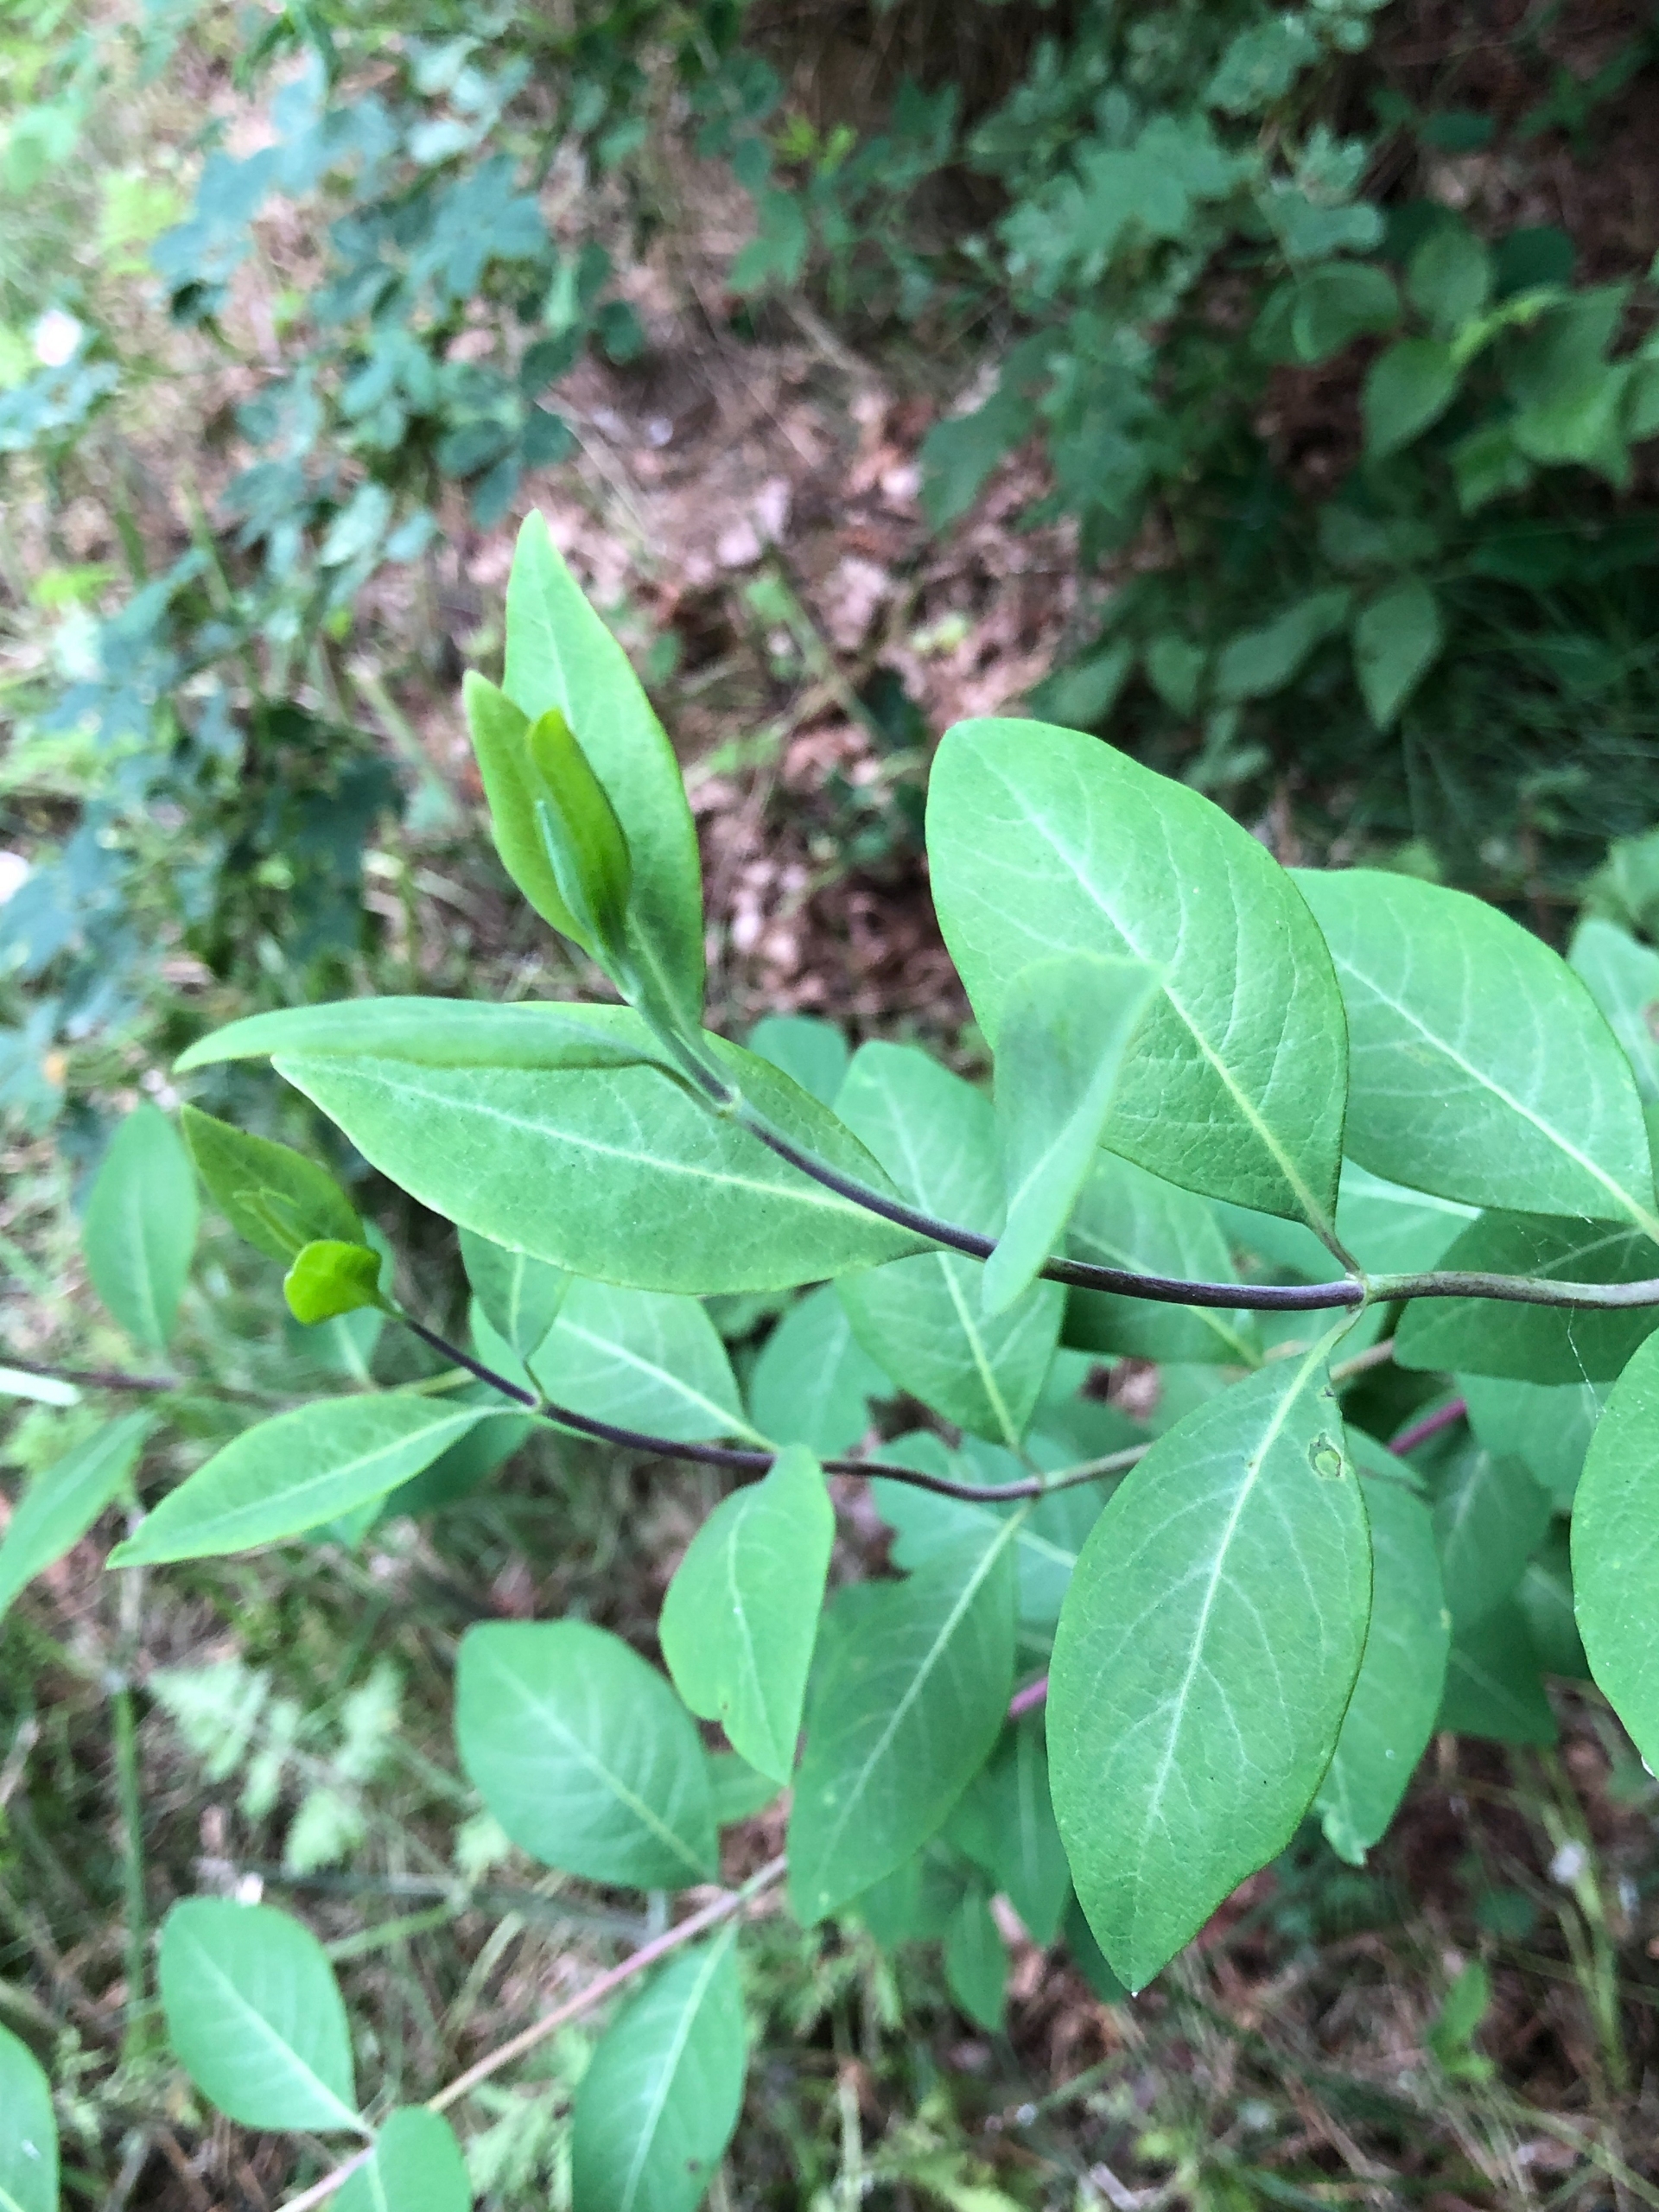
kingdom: Plantae
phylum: Tracheophyta
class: Magnoliopsida
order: Dipsacales
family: Caprifoliaceae
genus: Lonicera
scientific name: Lonicera periclymenum
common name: Almindelig gedeblad
